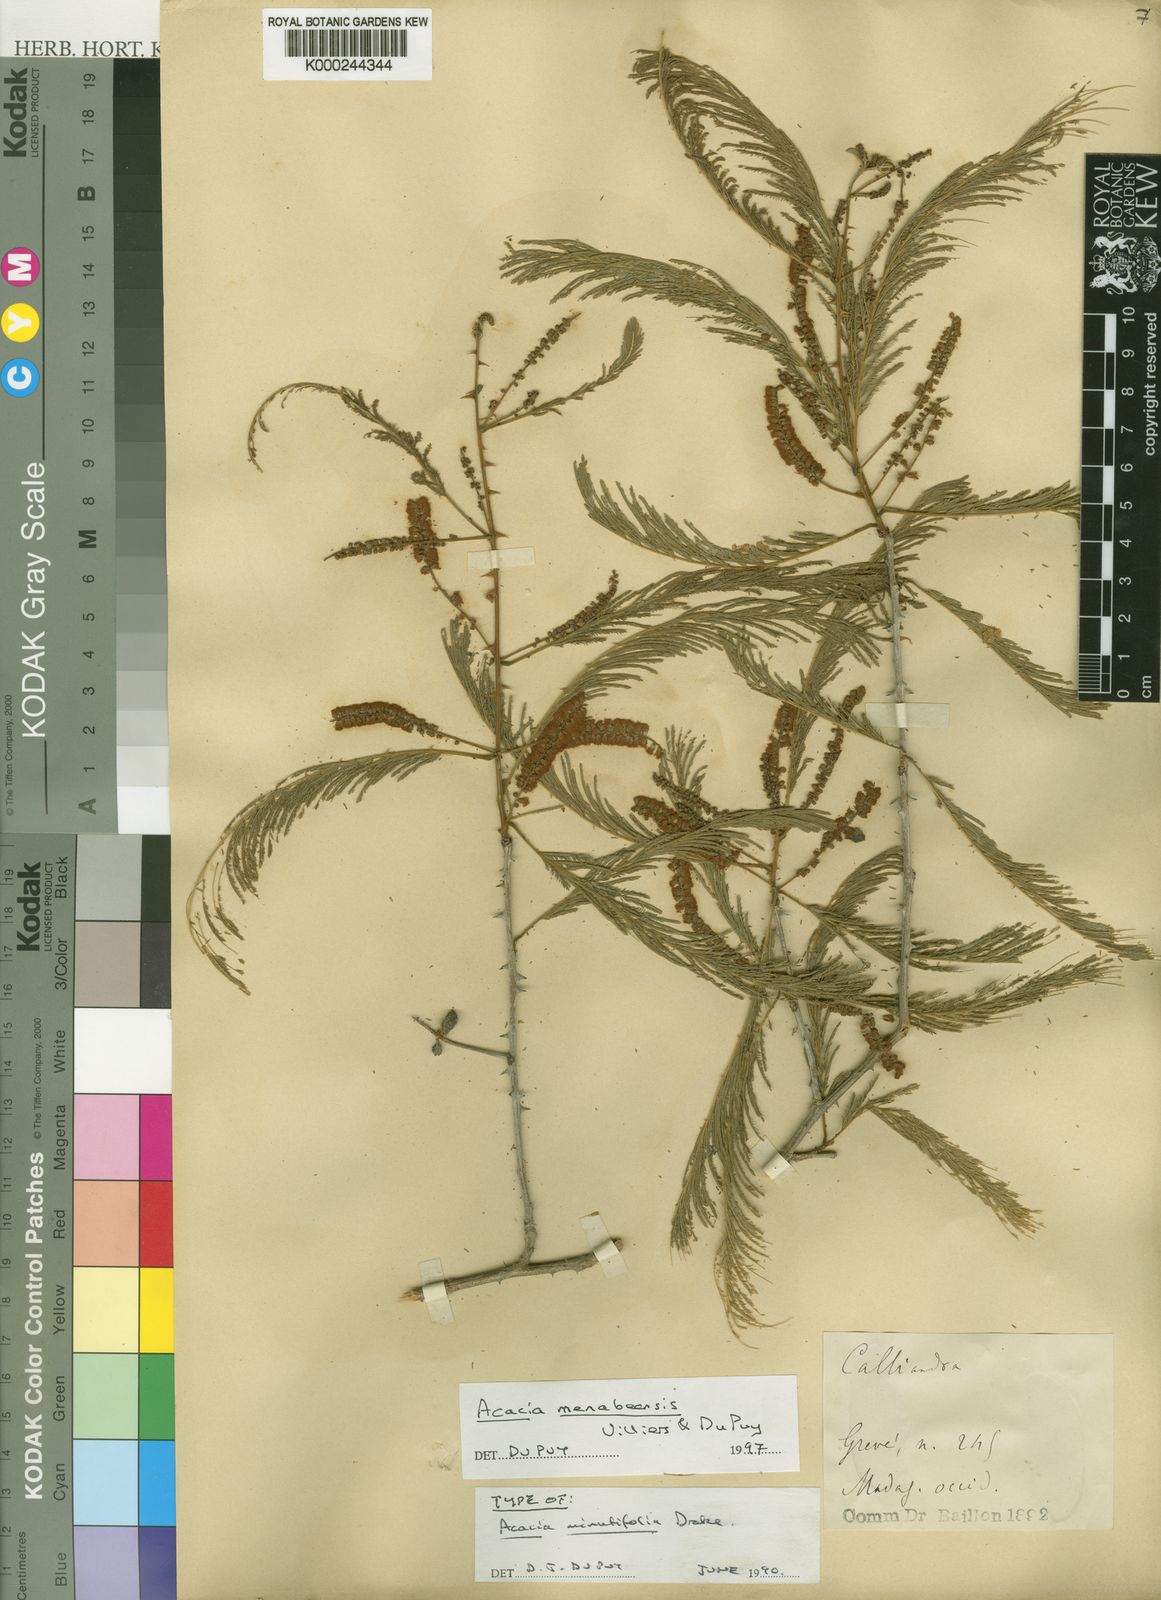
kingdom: Plantae
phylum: Tracheophyta
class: Magnoliopsida
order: Fabales
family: Fabaceae
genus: Acacia
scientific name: Acacia
